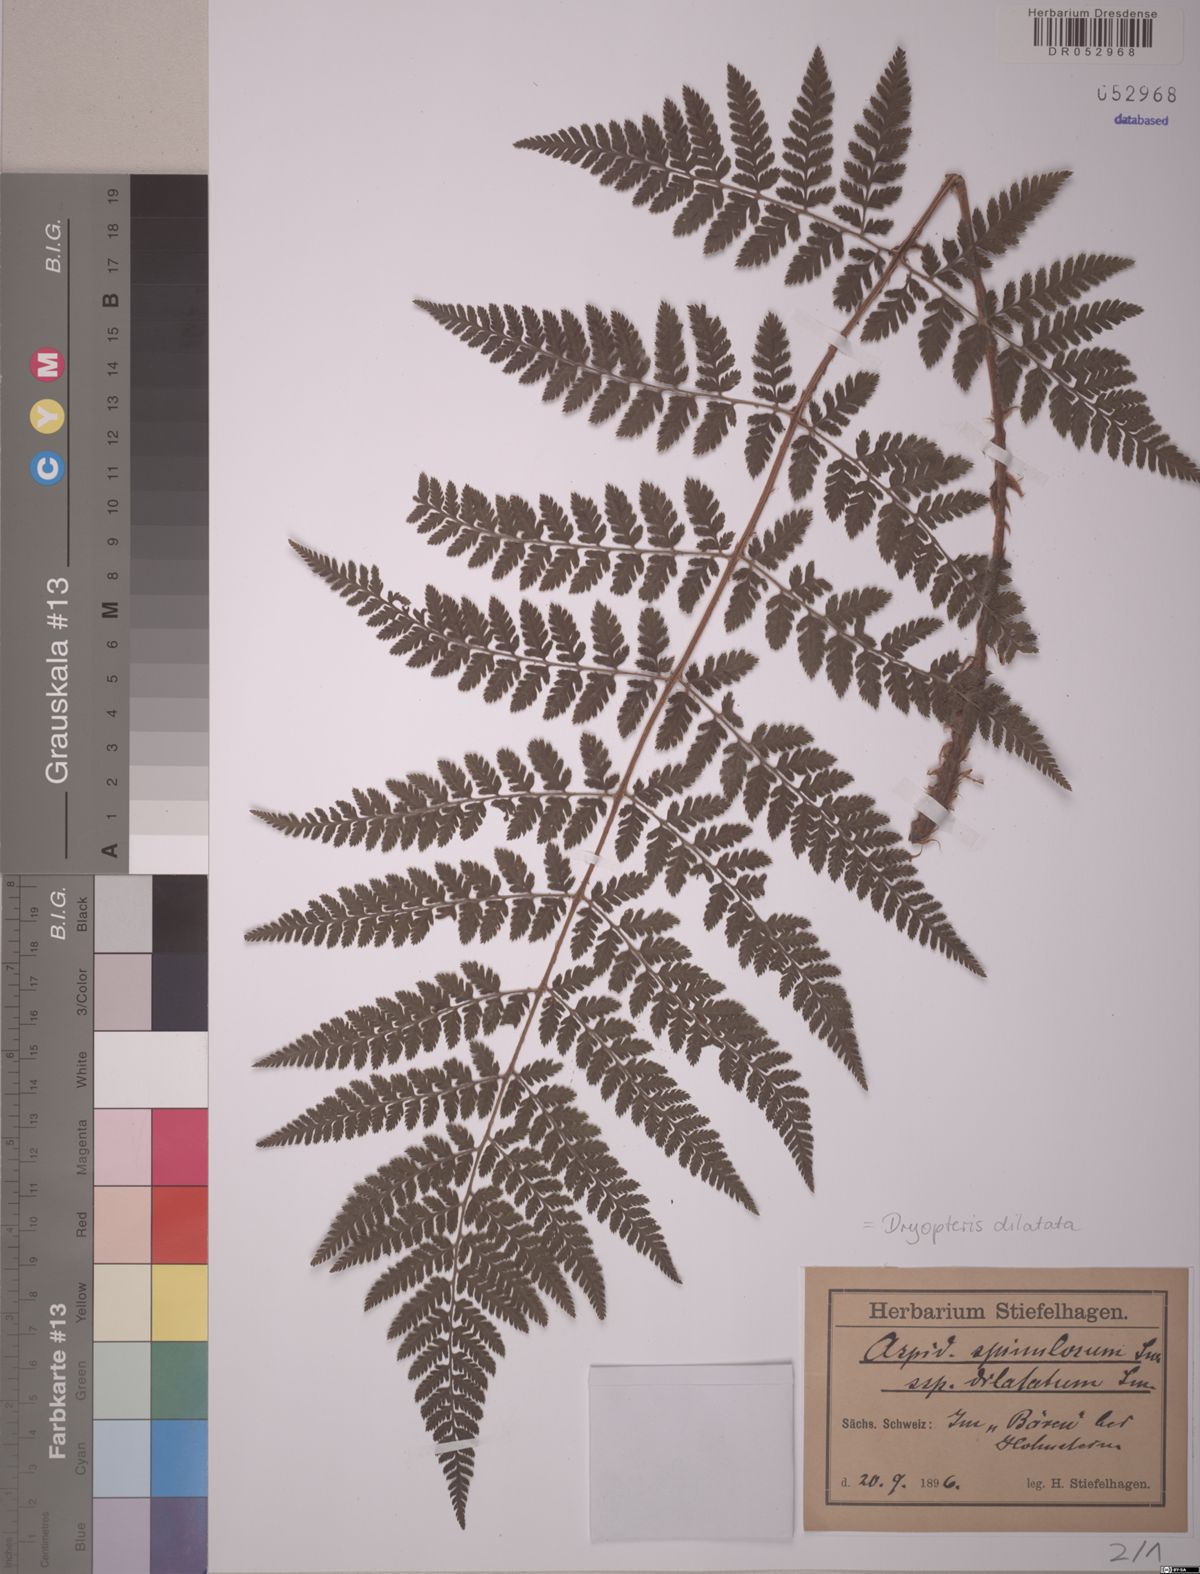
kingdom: Plantae
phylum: Tracheophyta
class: Polypodiopsida
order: Polypodiales
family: Dryopteridaceae
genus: Dryopteris
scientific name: Dryopteris dilatata
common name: Broad buckler-fern
